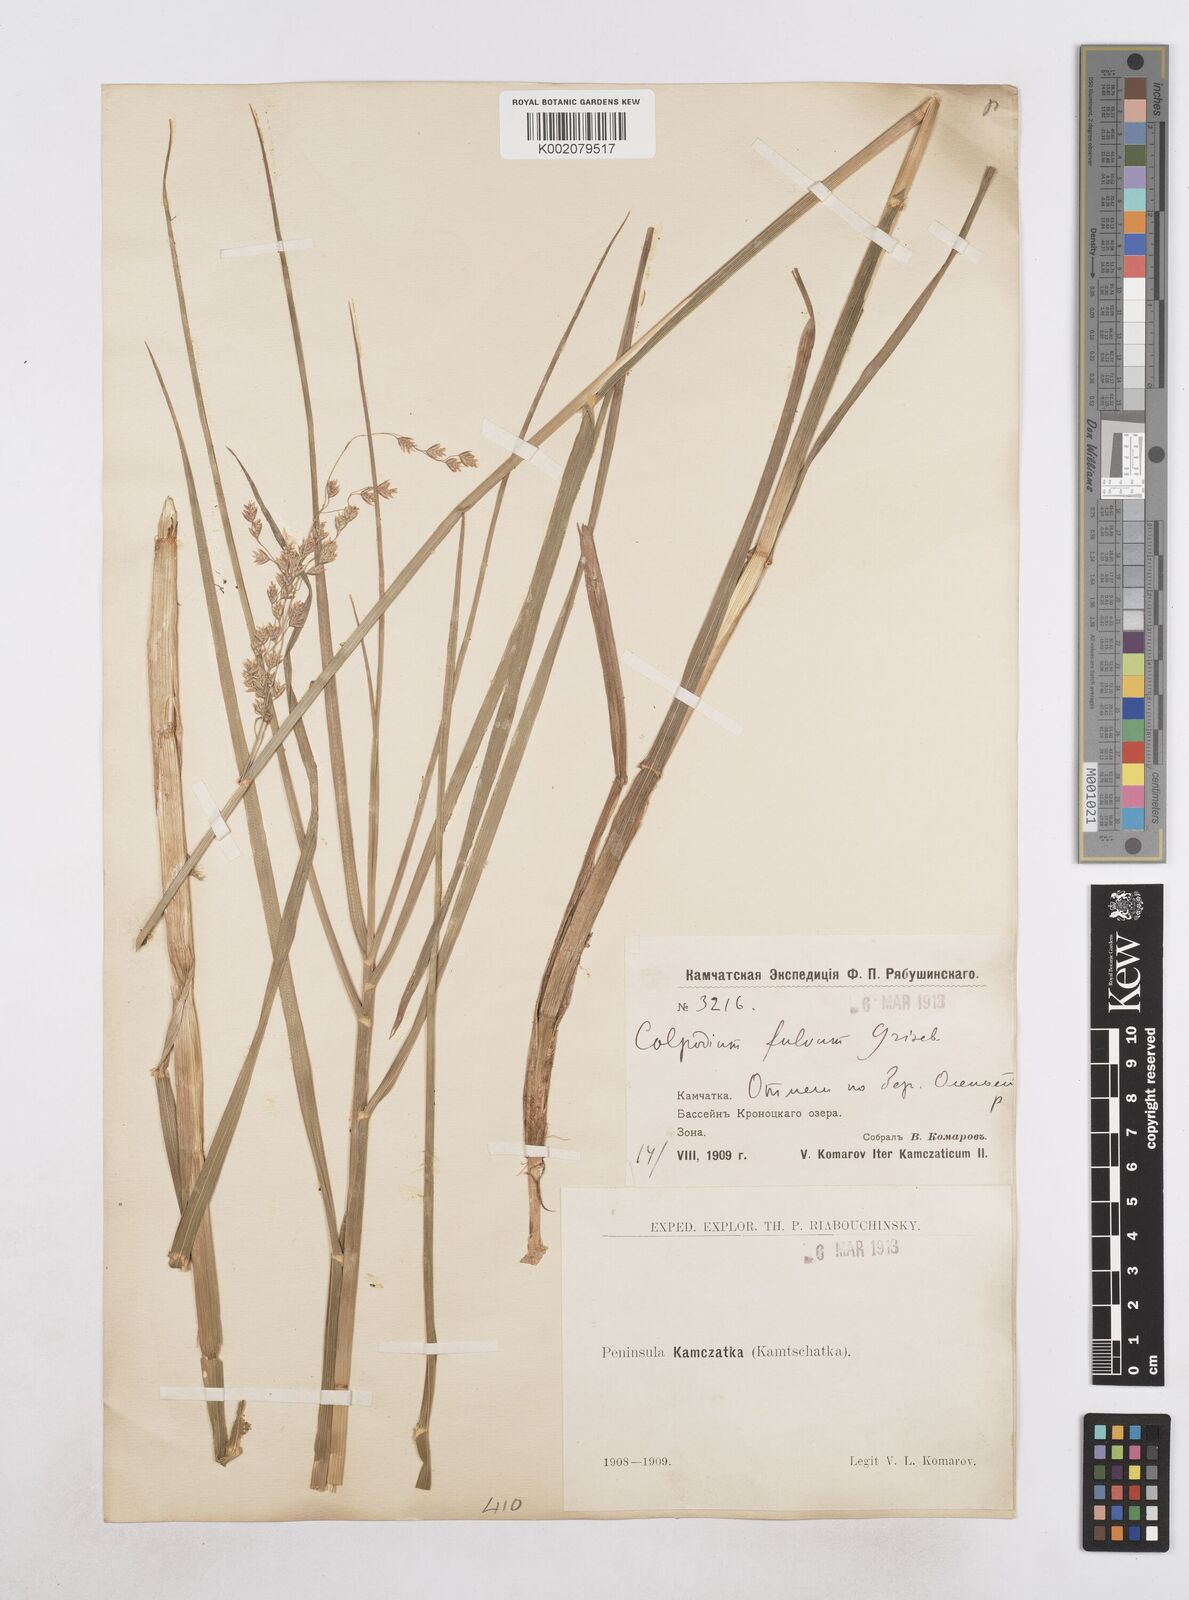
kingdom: Plantae
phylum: Tracheophyta
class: Liliopsida
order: Poales
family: Poaceae
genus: Dupontia
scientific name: Dupontia fulva
